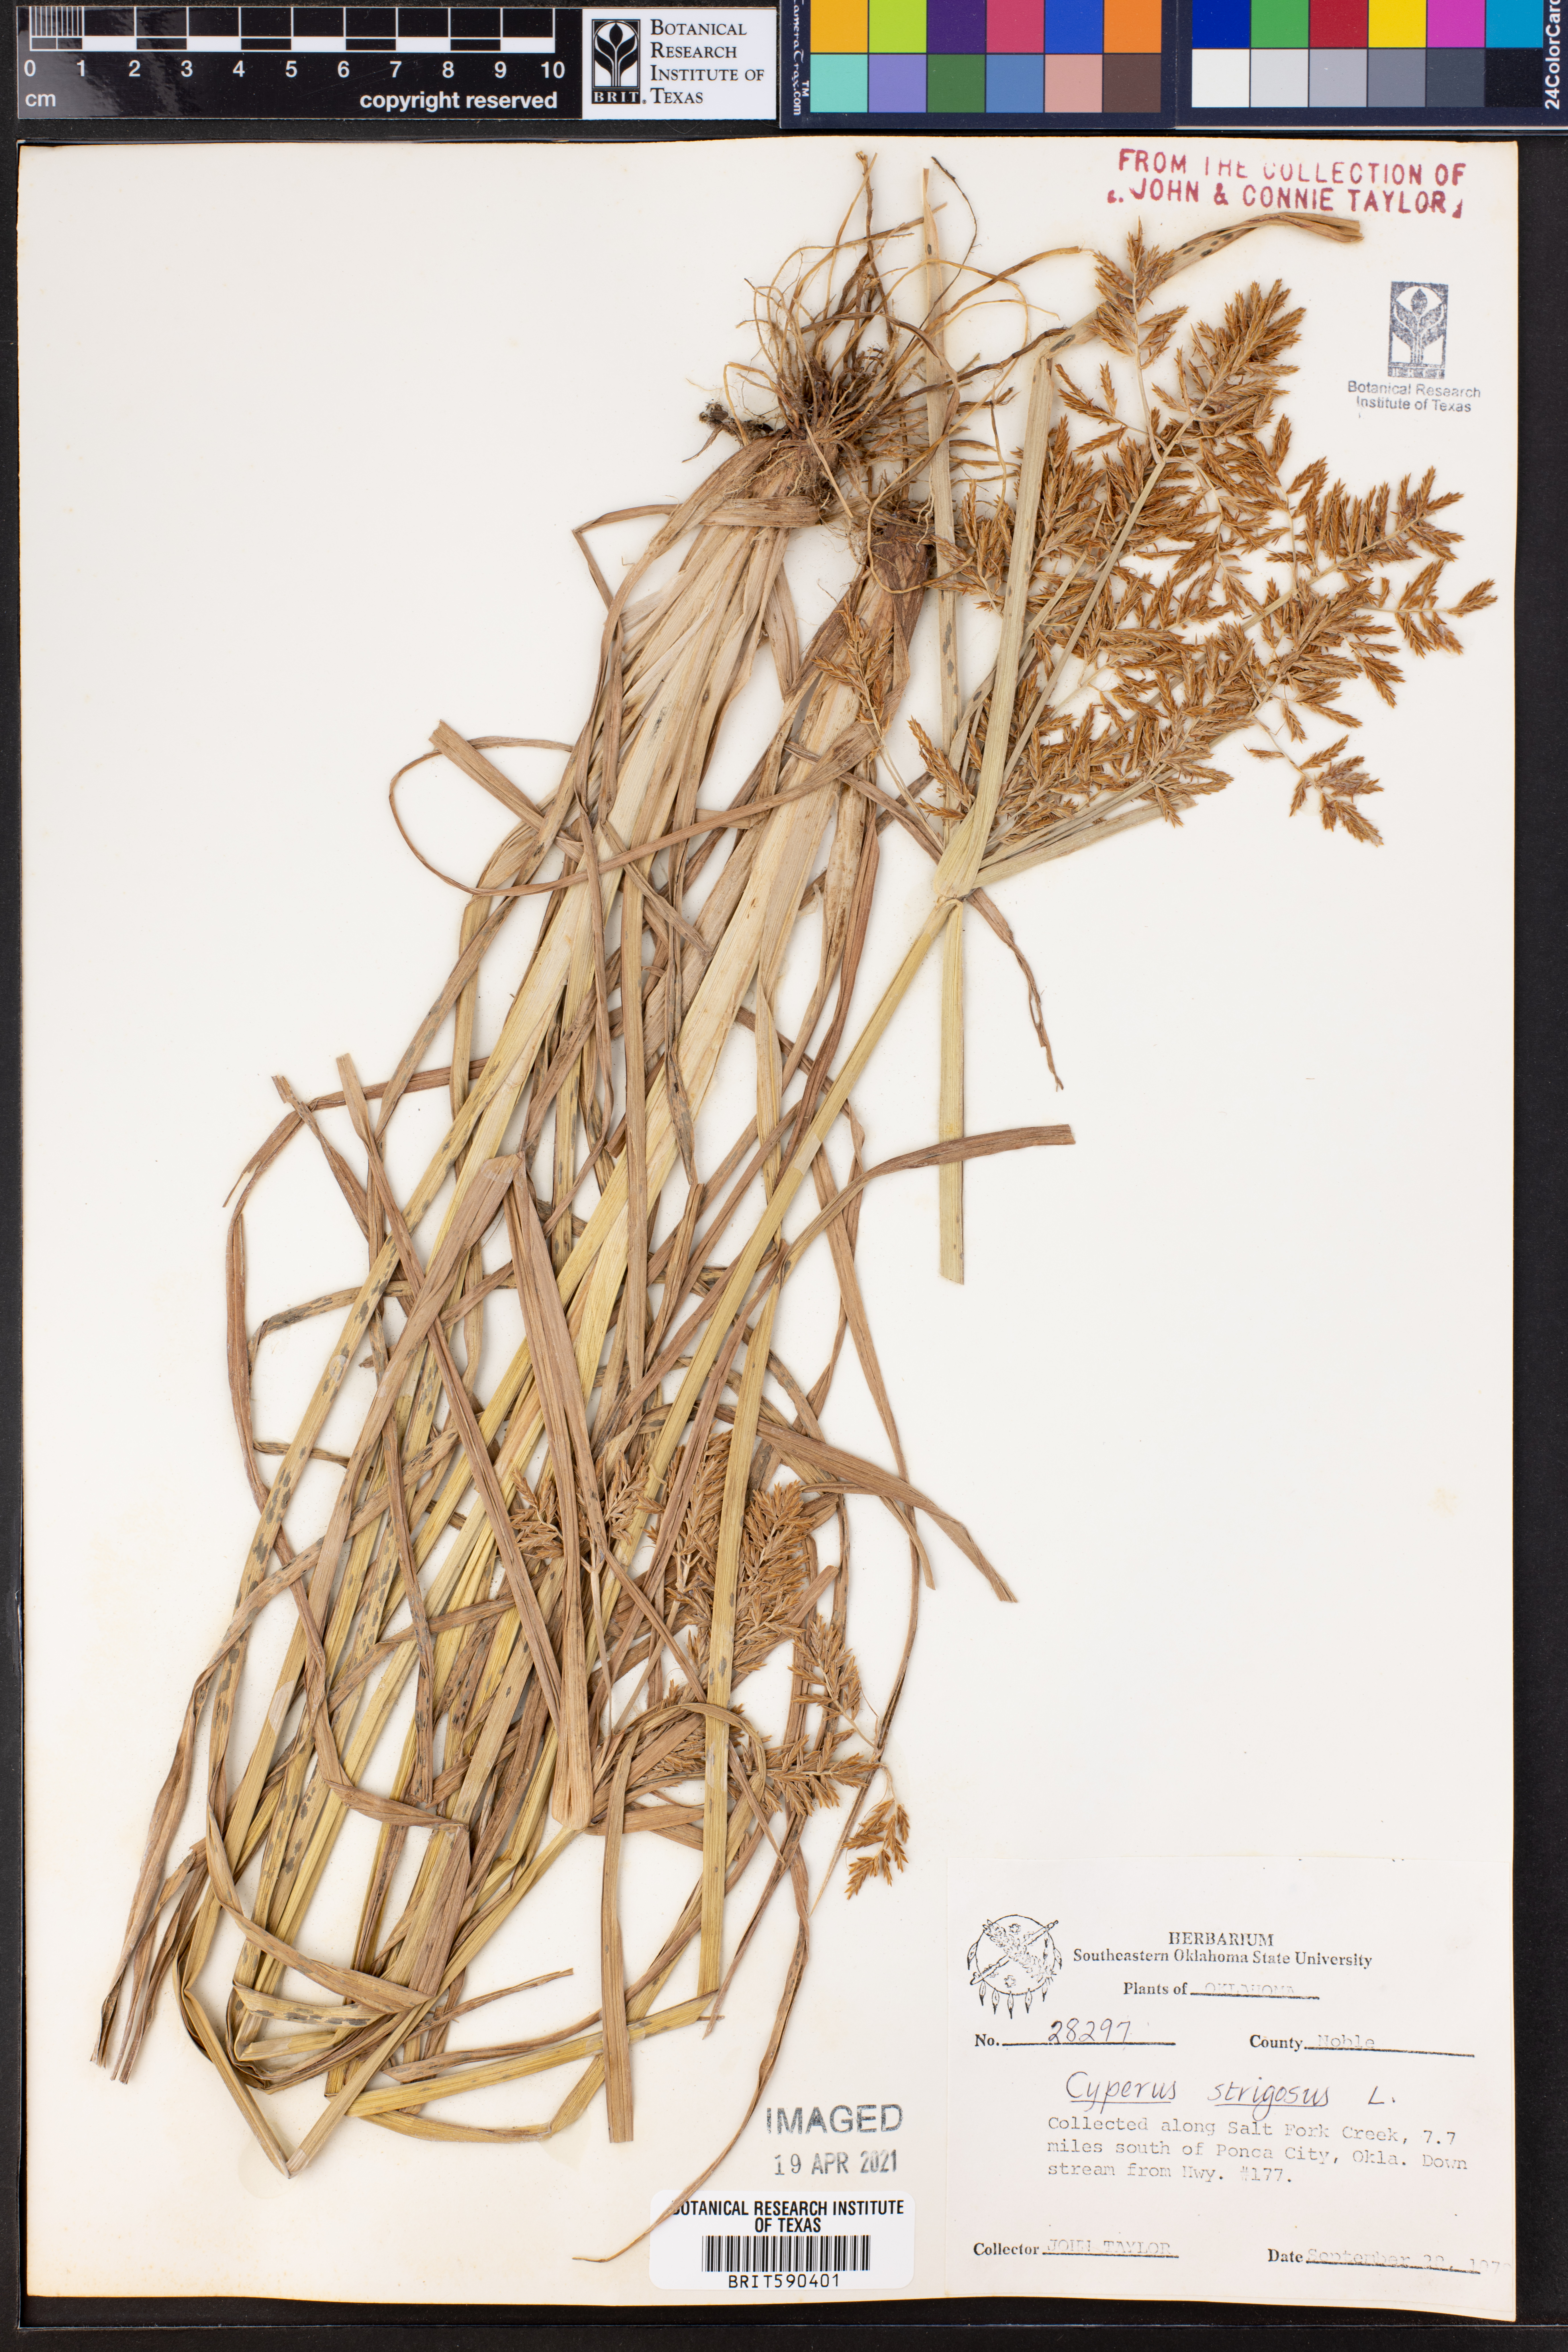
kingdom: Plantae
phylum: Tracheophyta
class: Liliopsida
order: Poales
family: Cyperaceae
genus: Cyperus
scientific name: Cyperus strigosus
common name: False nutsedge
